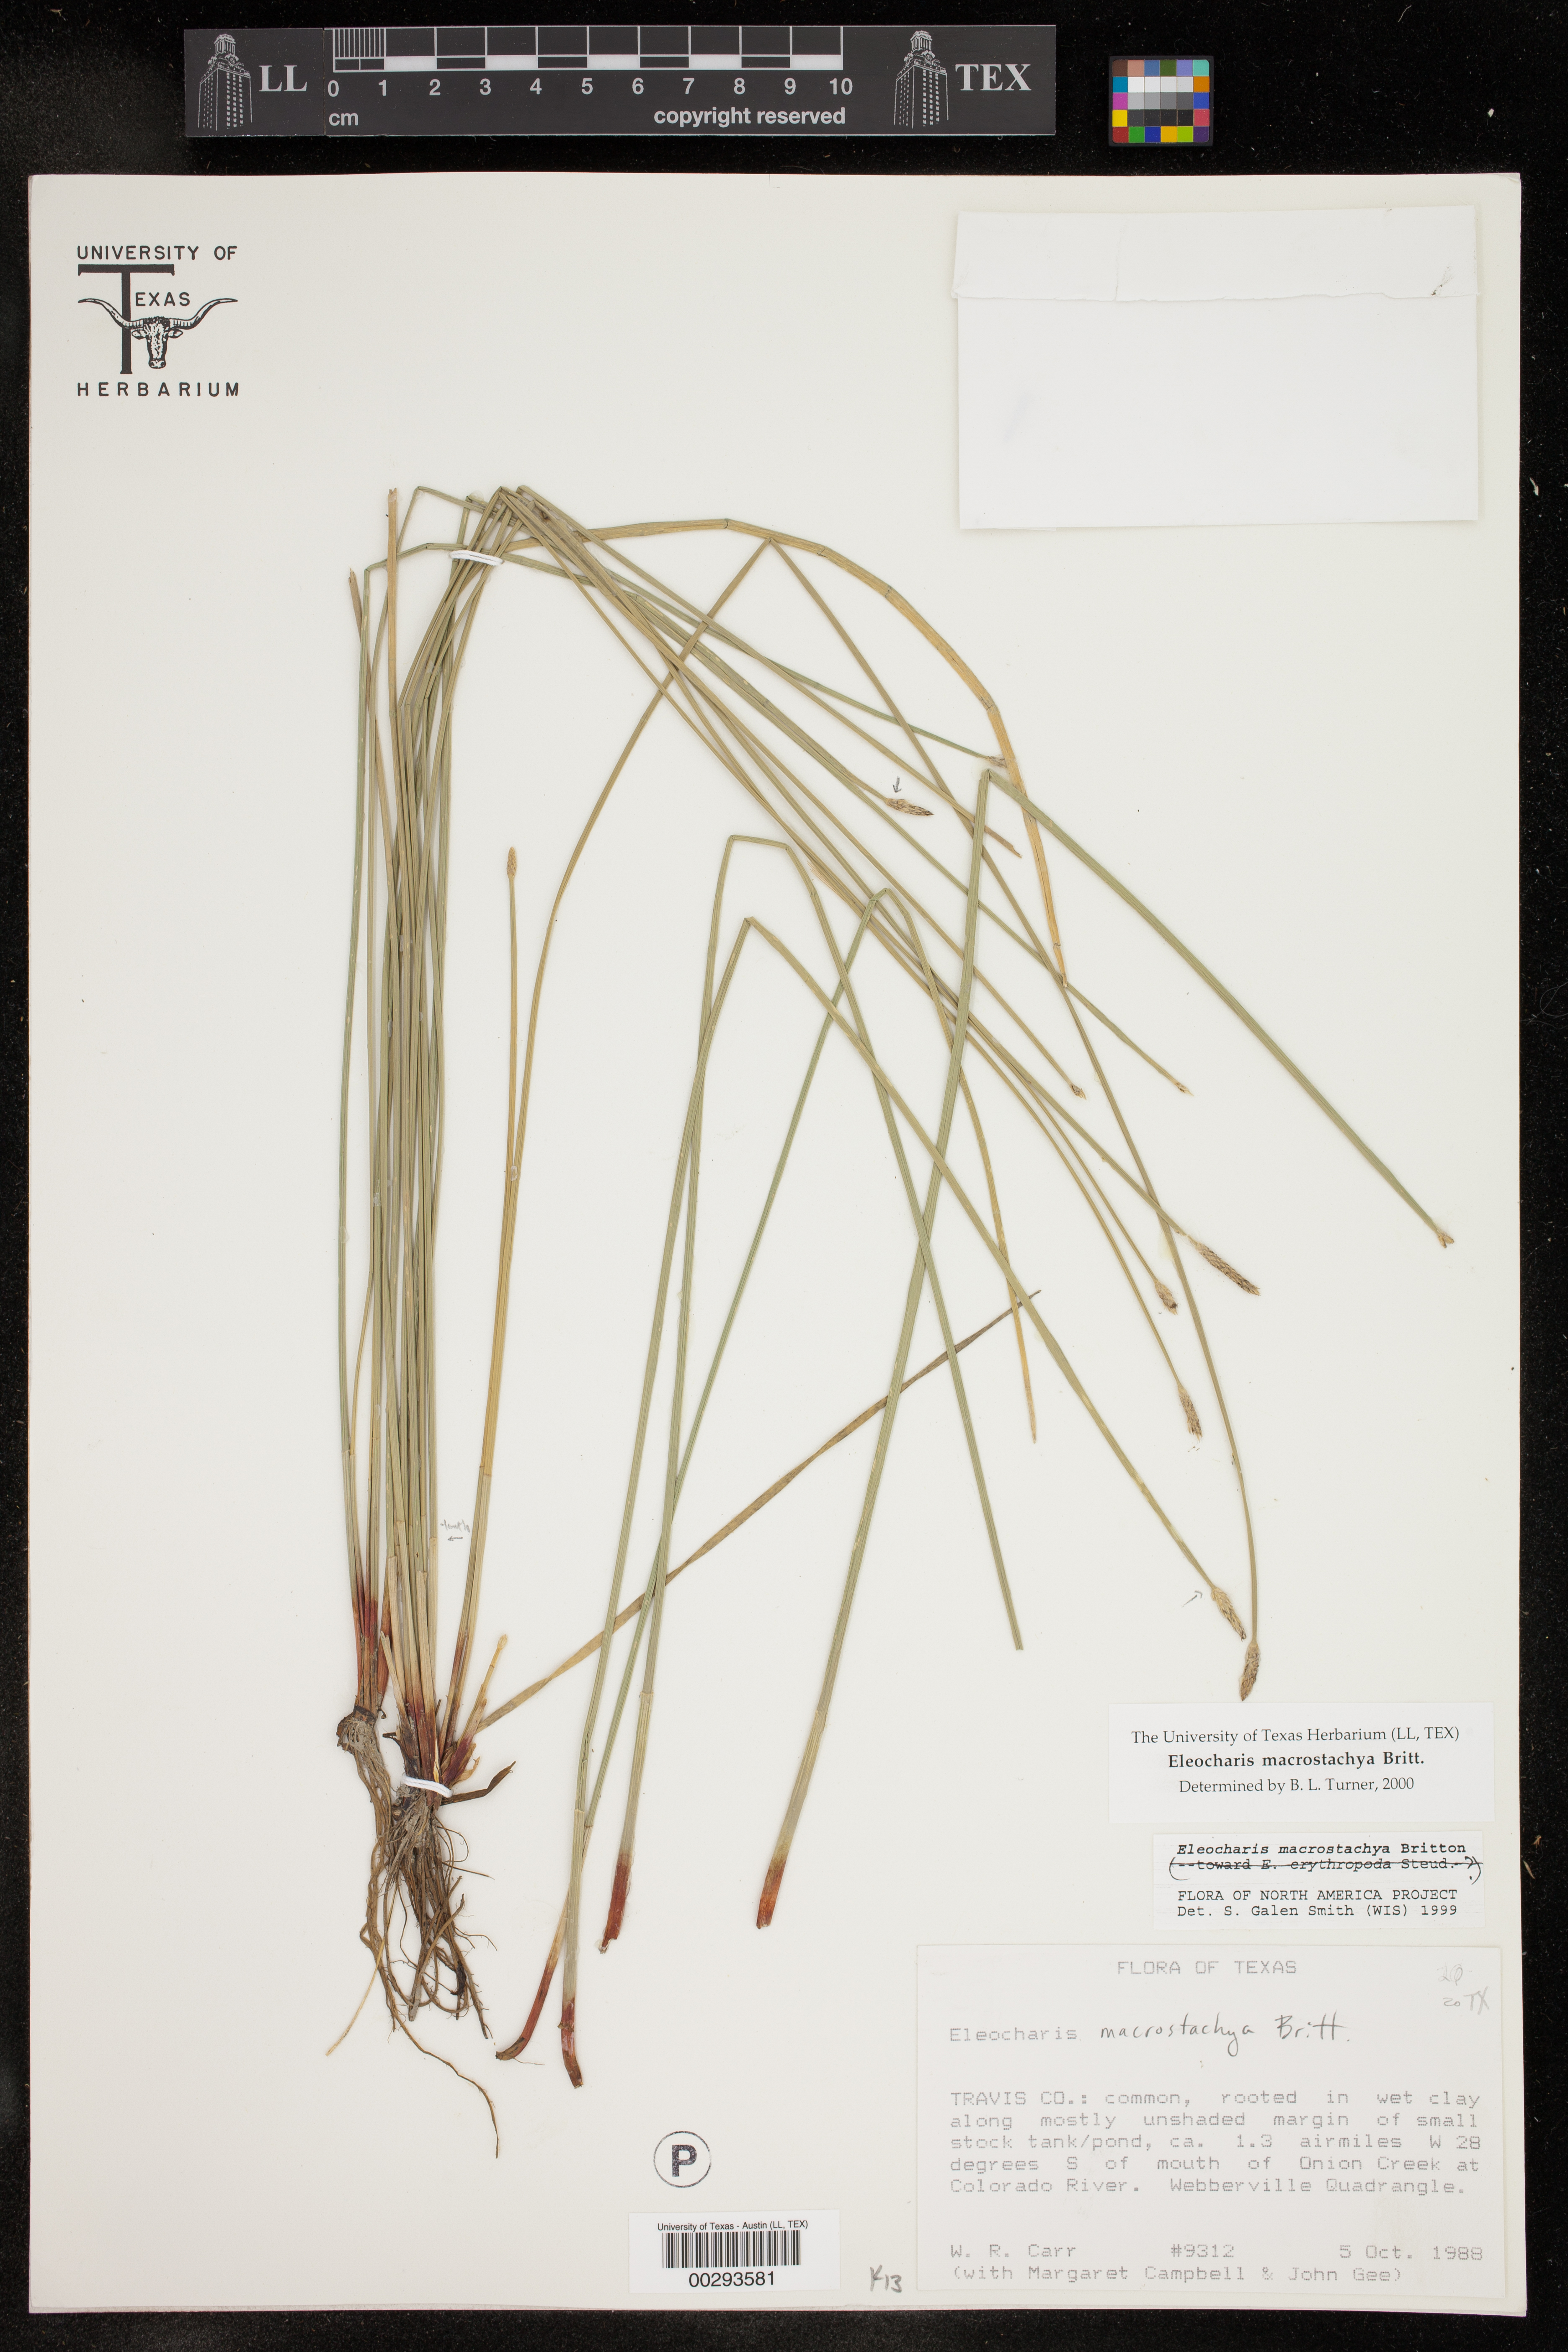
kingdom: Plantae
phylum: Tracheophyta
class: Liliopsida
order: Poales
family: Cyperaceae
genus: Eleocharis
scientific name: Eleocharis macrostachya
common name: Pale spikerush
